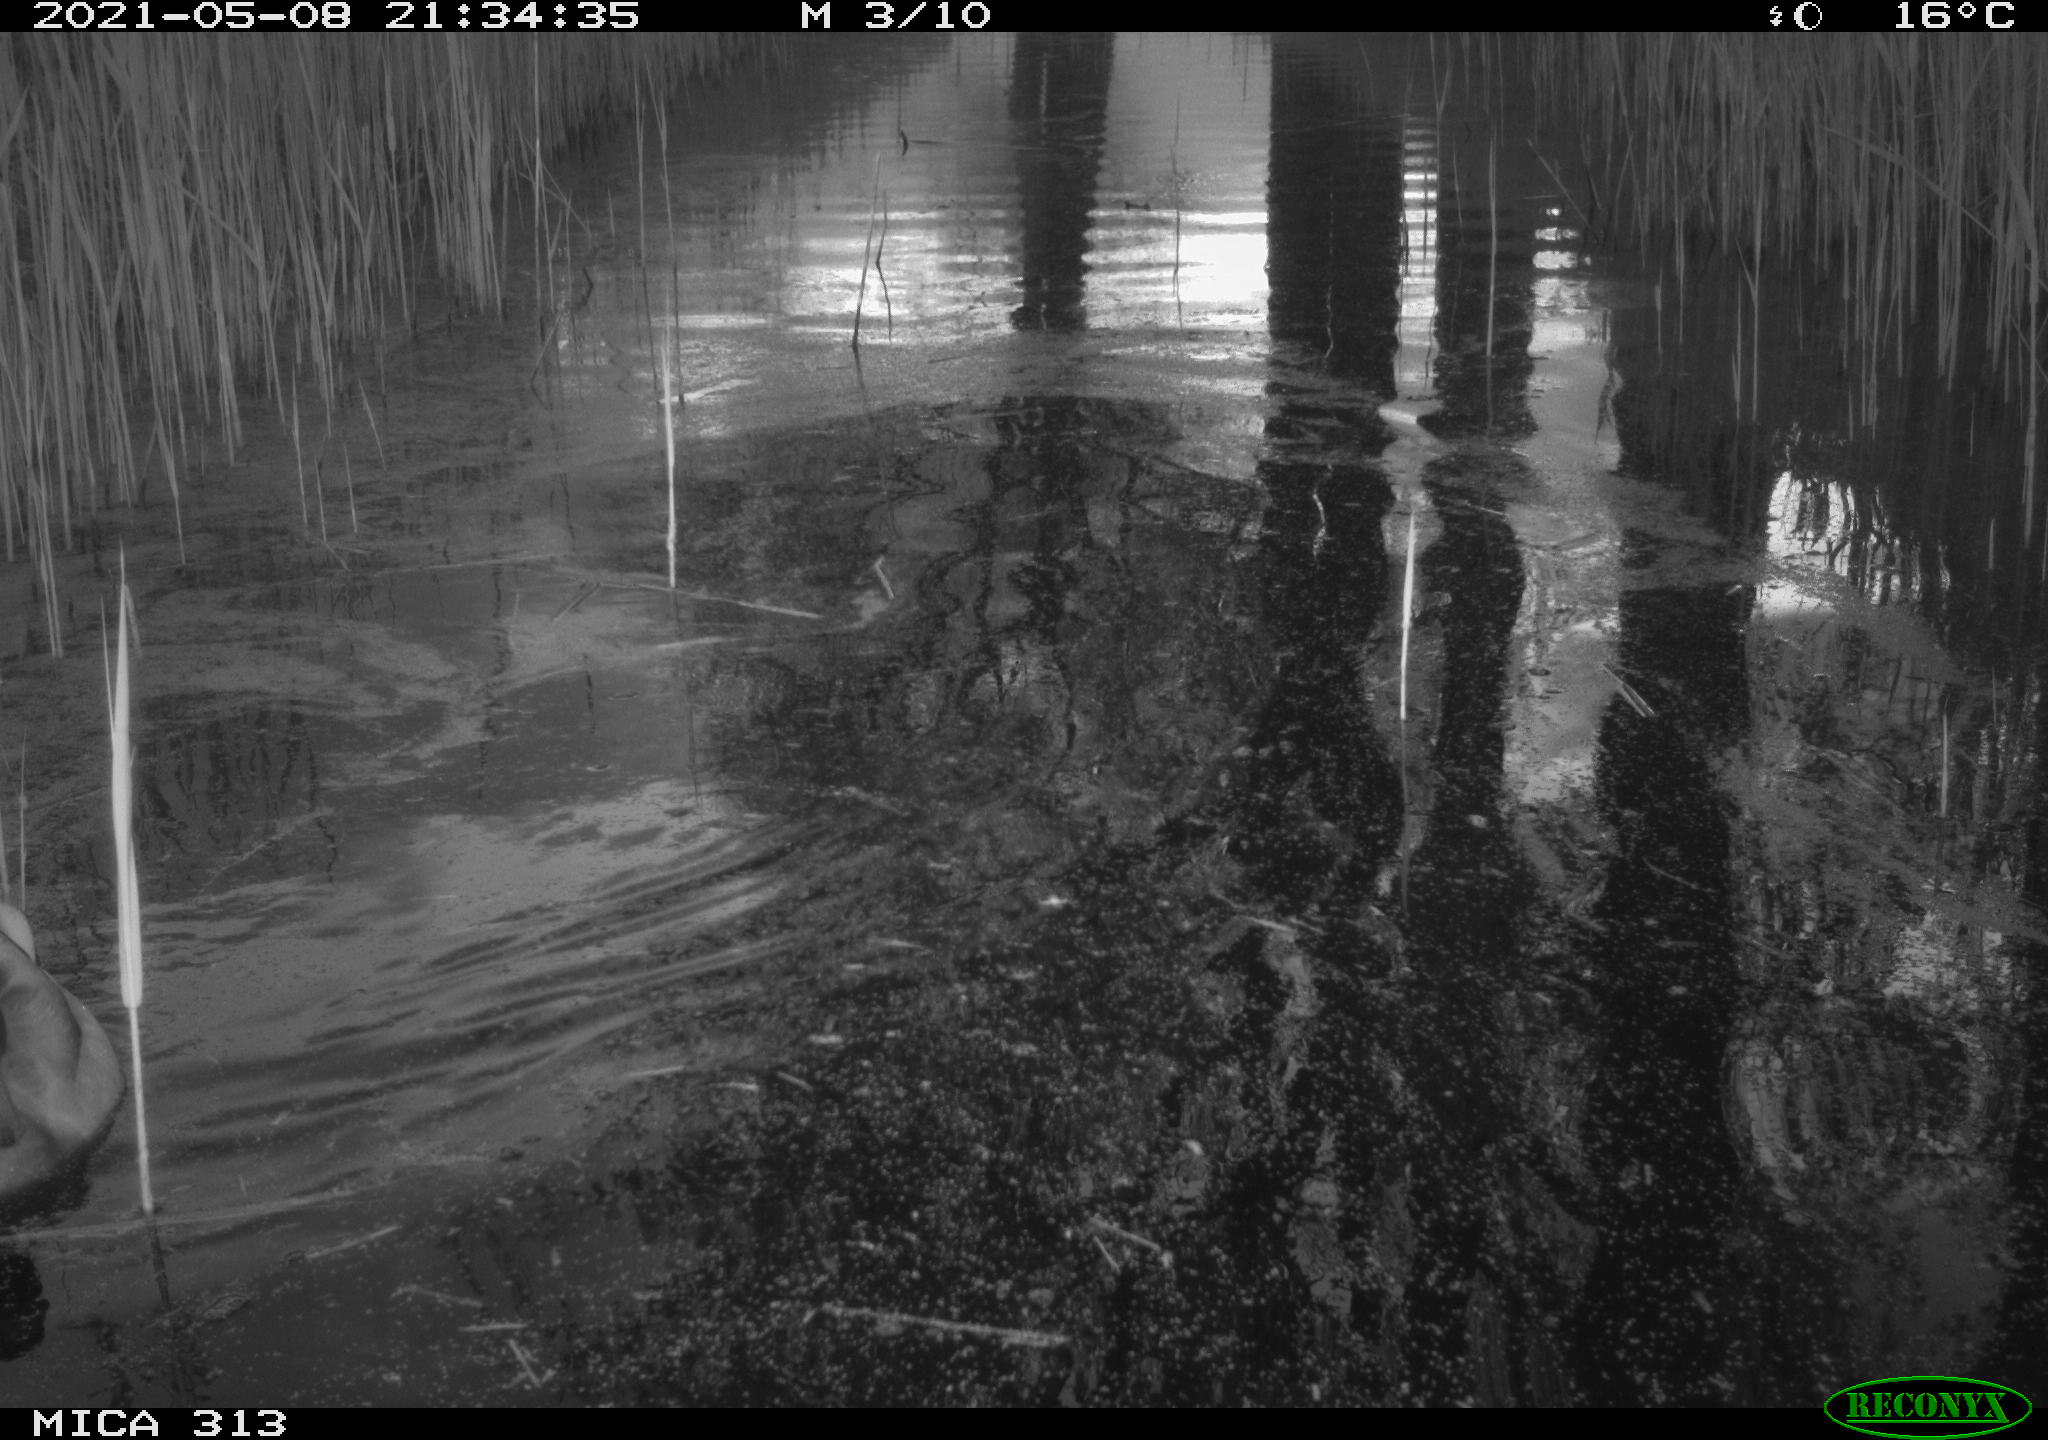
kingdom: Animalia
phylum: Chordata
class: Aves
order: Anseriformes
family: Anatidae
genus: Anas
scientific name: Anas platyrhynchos
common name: Mallard
